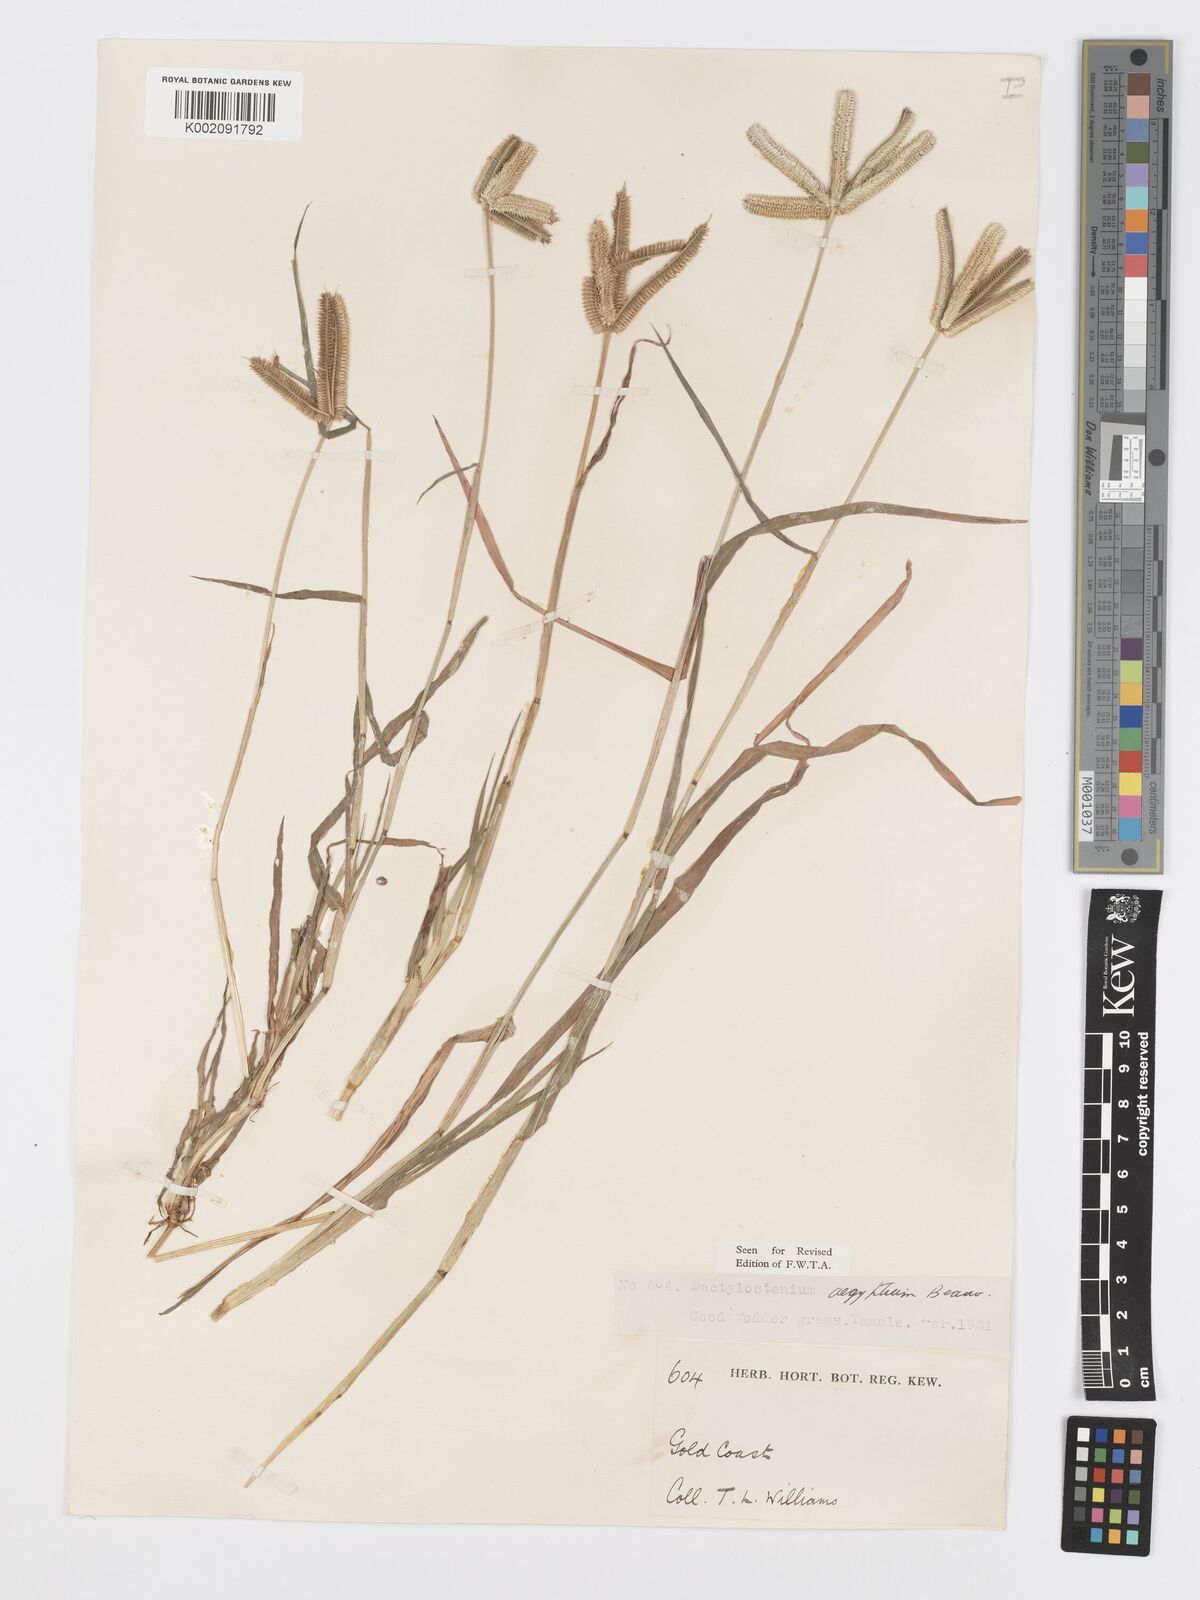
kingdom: Plantae
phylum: Tracheophyta
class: Liliopsida
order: Poales
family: Poaceae
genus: Dactyloctenium
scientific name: Dactyloctenium aegyptium
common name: Egyptian grass
